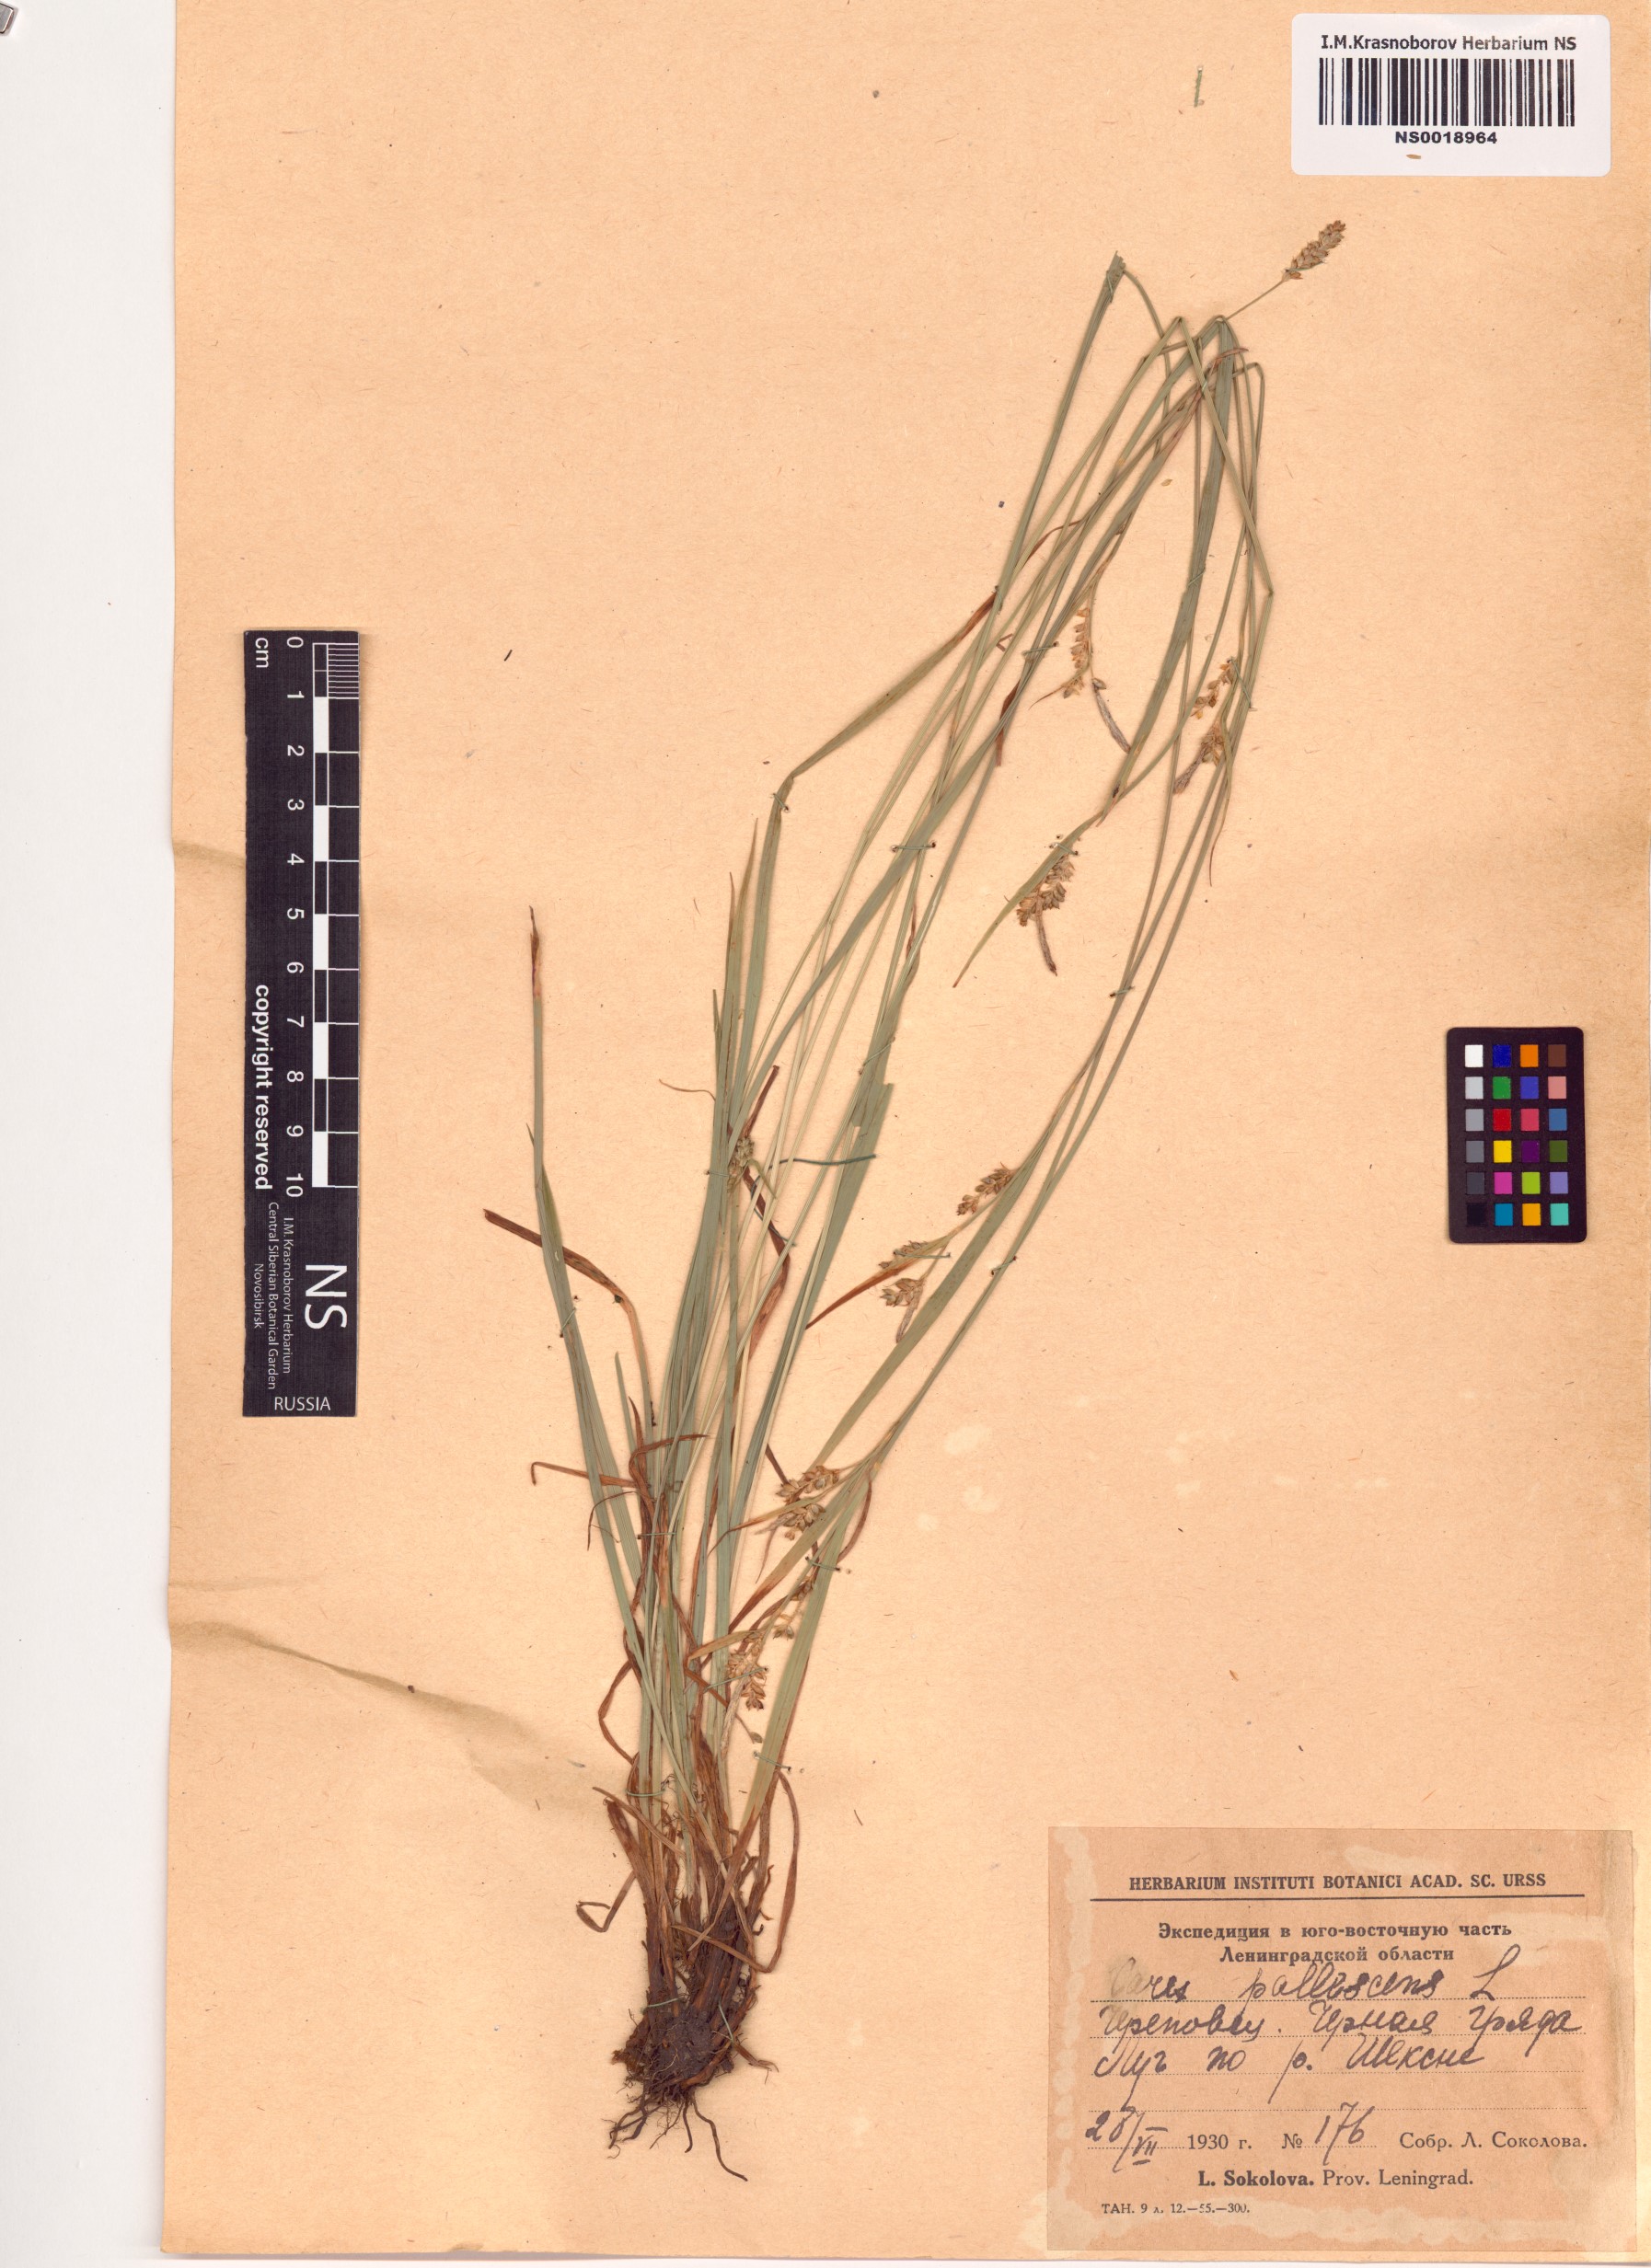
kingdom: Plantae
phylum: Tracheophyta
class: Liliopsida
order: Poales
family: Cyperaceae
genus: Carex
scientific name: Carex pallescens
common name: Pale sedge
